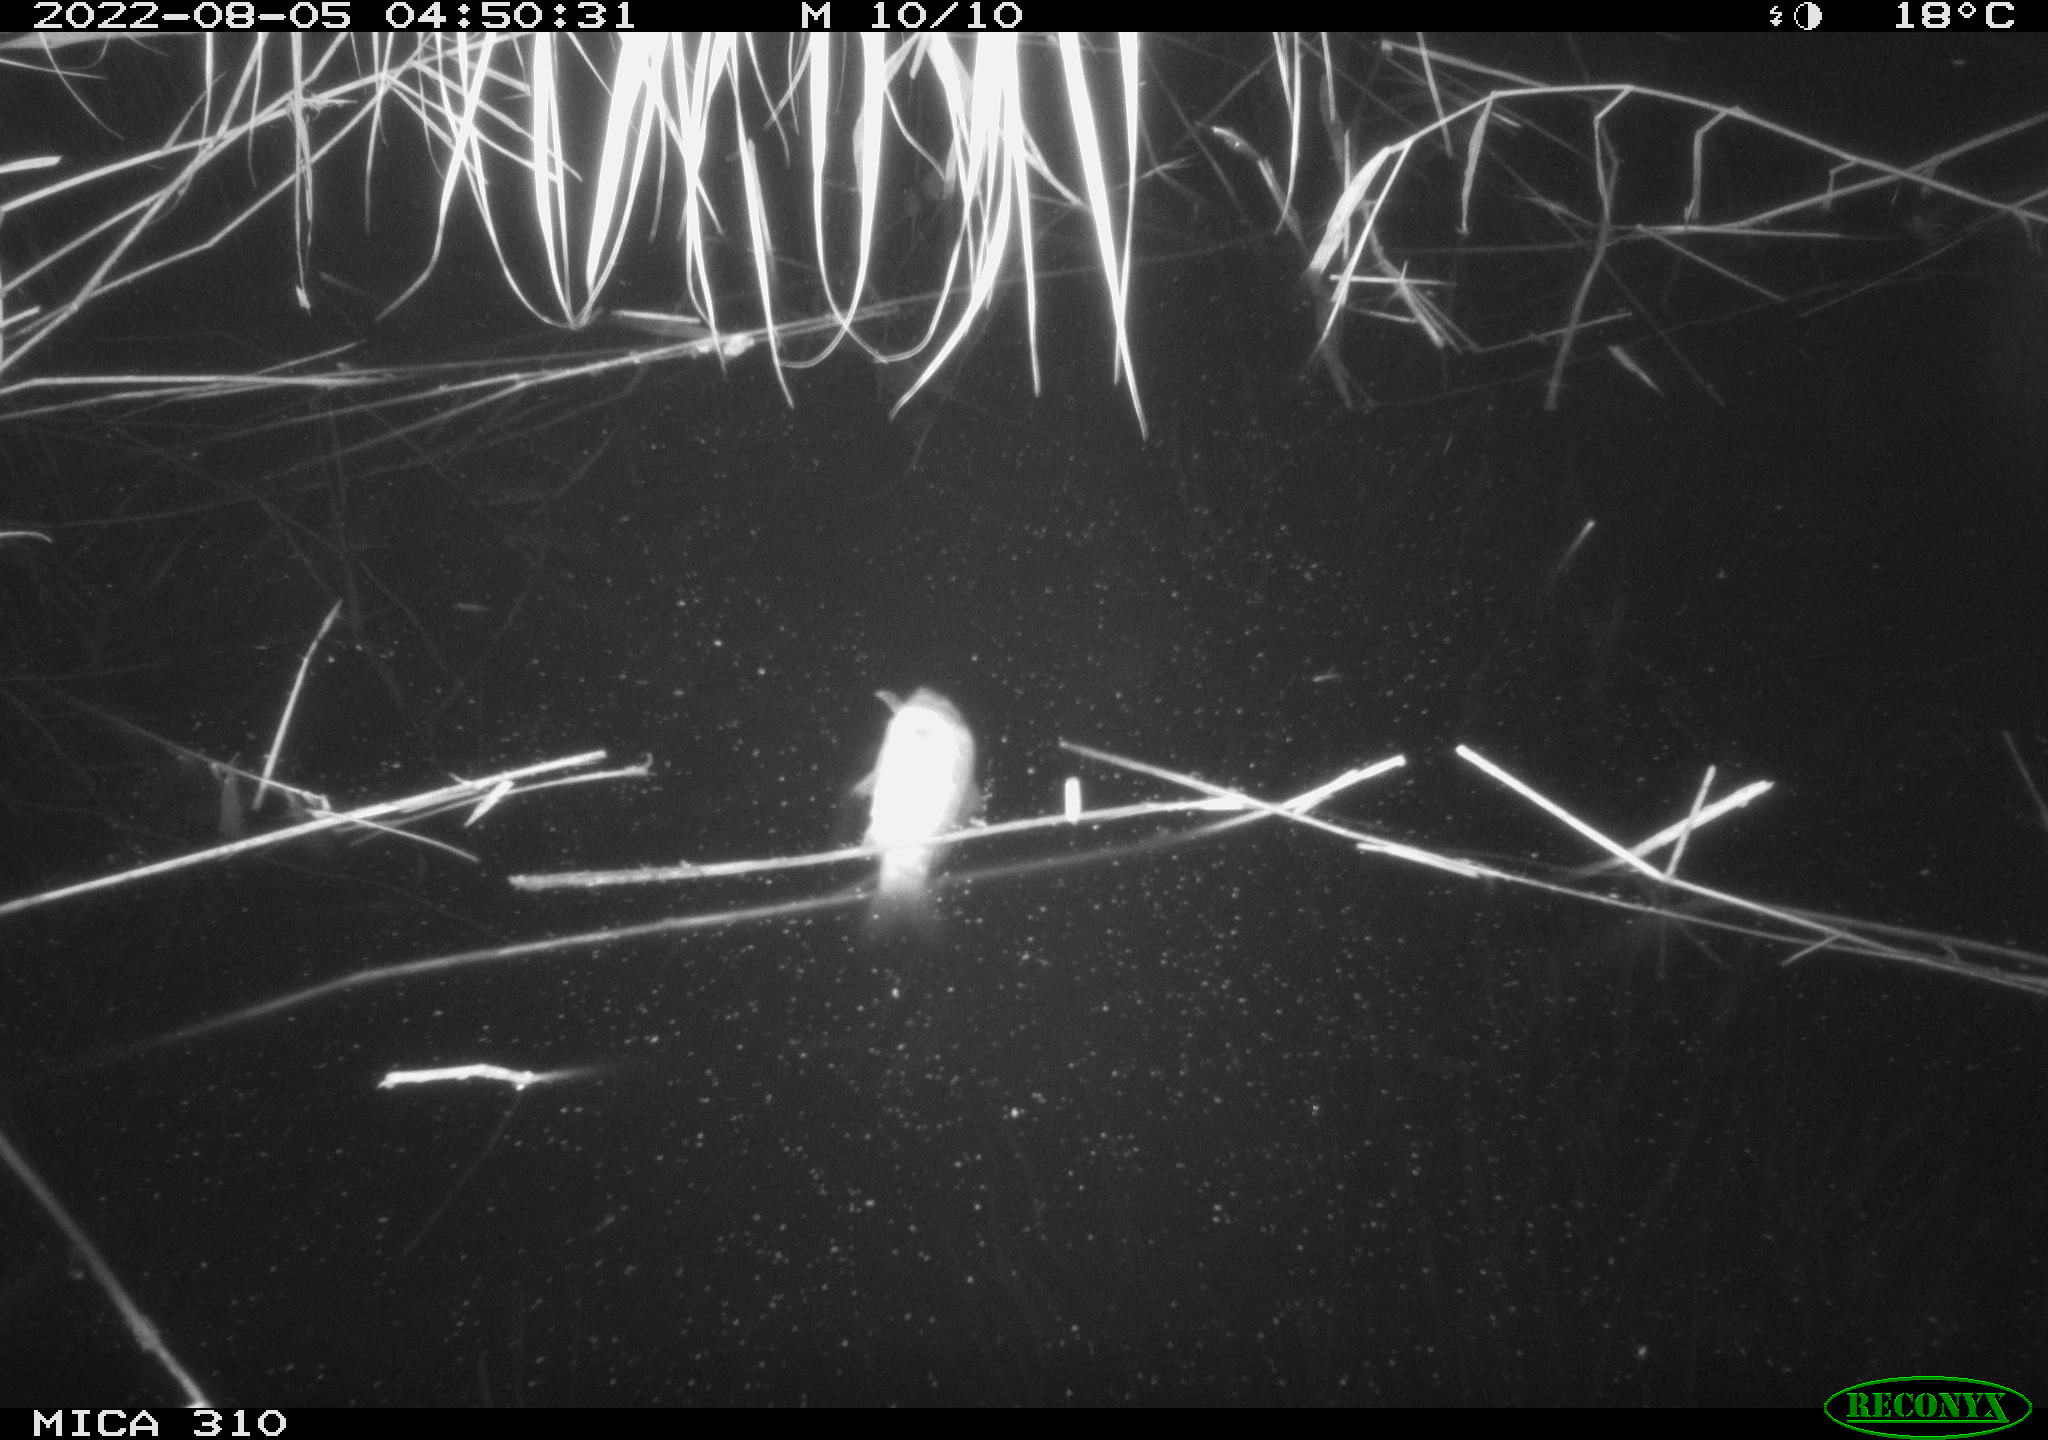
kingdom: Animalia
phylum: Chordata
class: Mammalia
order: Rodentia
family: Muridae
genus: Rattus
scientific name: Rattus norvegicus
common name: Brown rat
